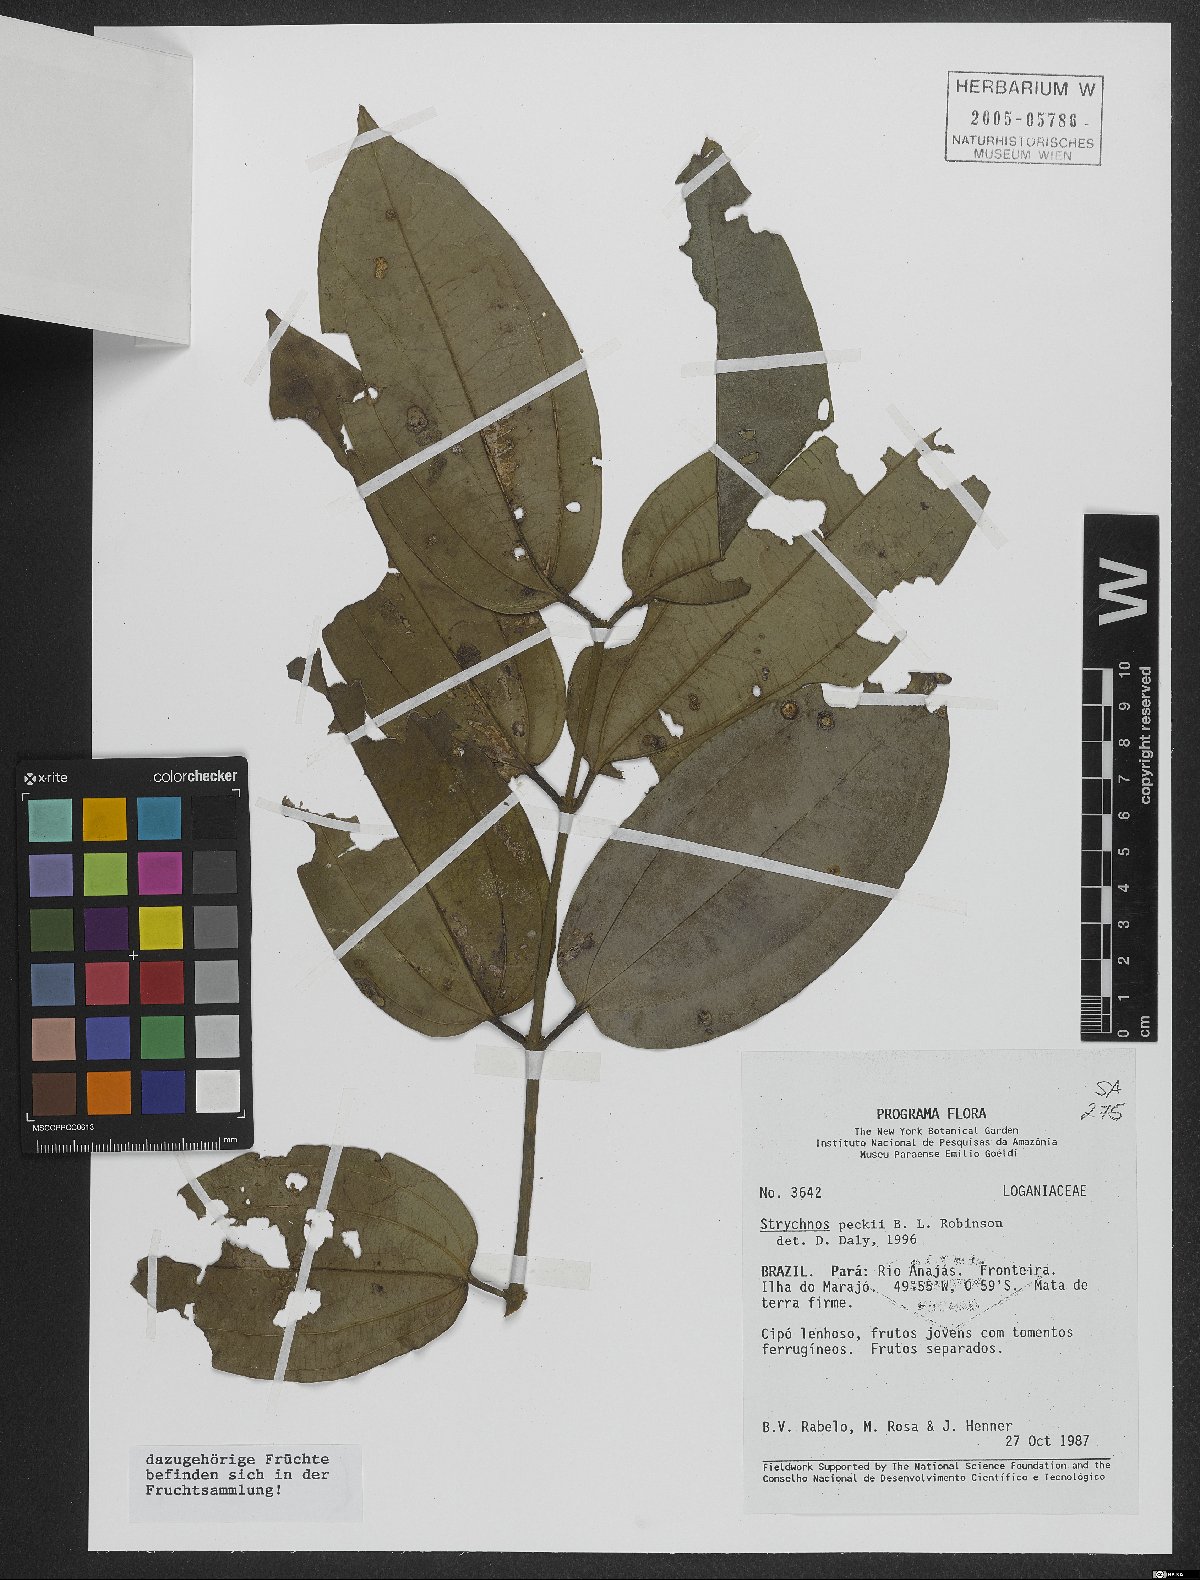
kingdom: Plantae
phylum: Tracheophyta
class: Magnoliopsida
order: Gentianales
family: Loganiaceae
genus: Strychnos
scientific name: Strychnos peckii
